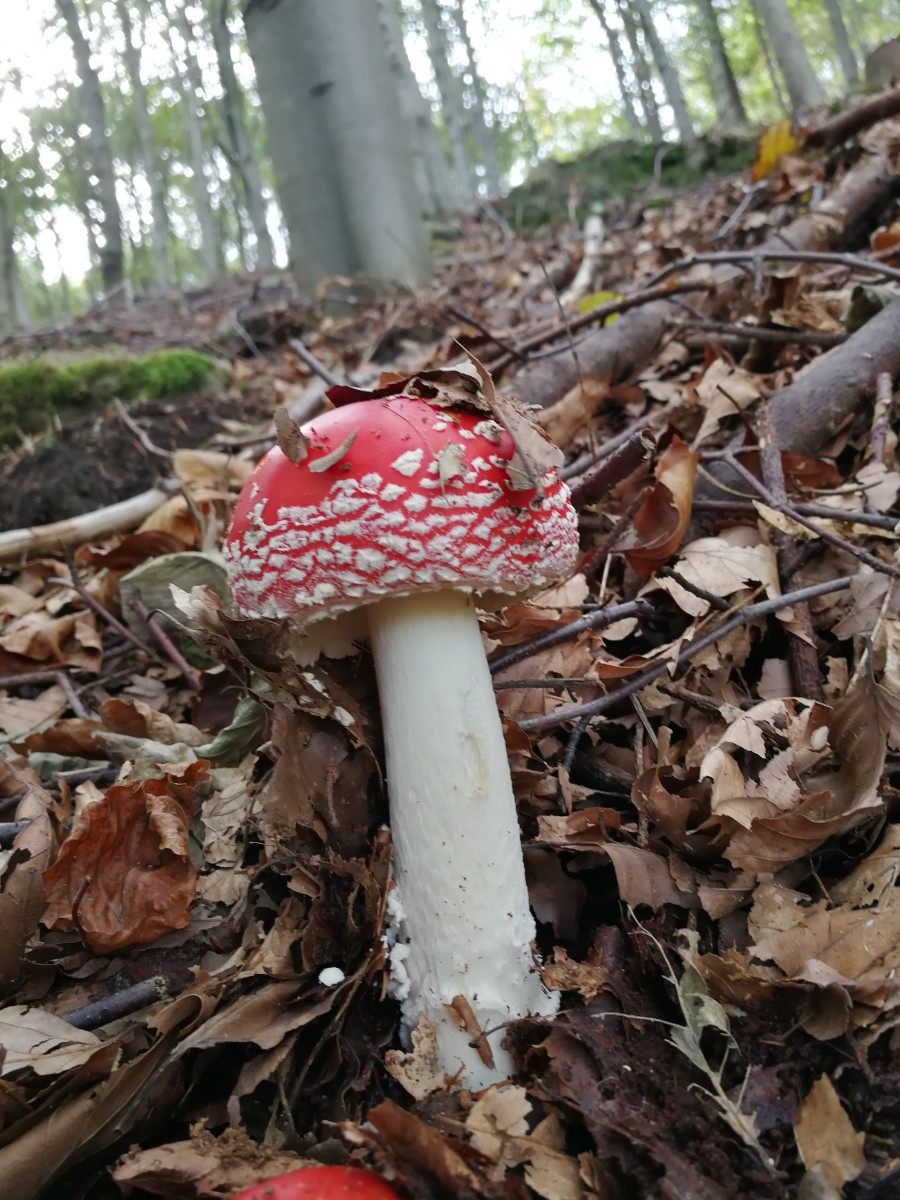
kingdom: Fungi
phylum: Basidiomycota
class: Agaricomycetes
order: Agaricales
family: Amanitaceae
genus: Amanita
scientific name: Amanita muscaria
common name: rød fluesvamp
